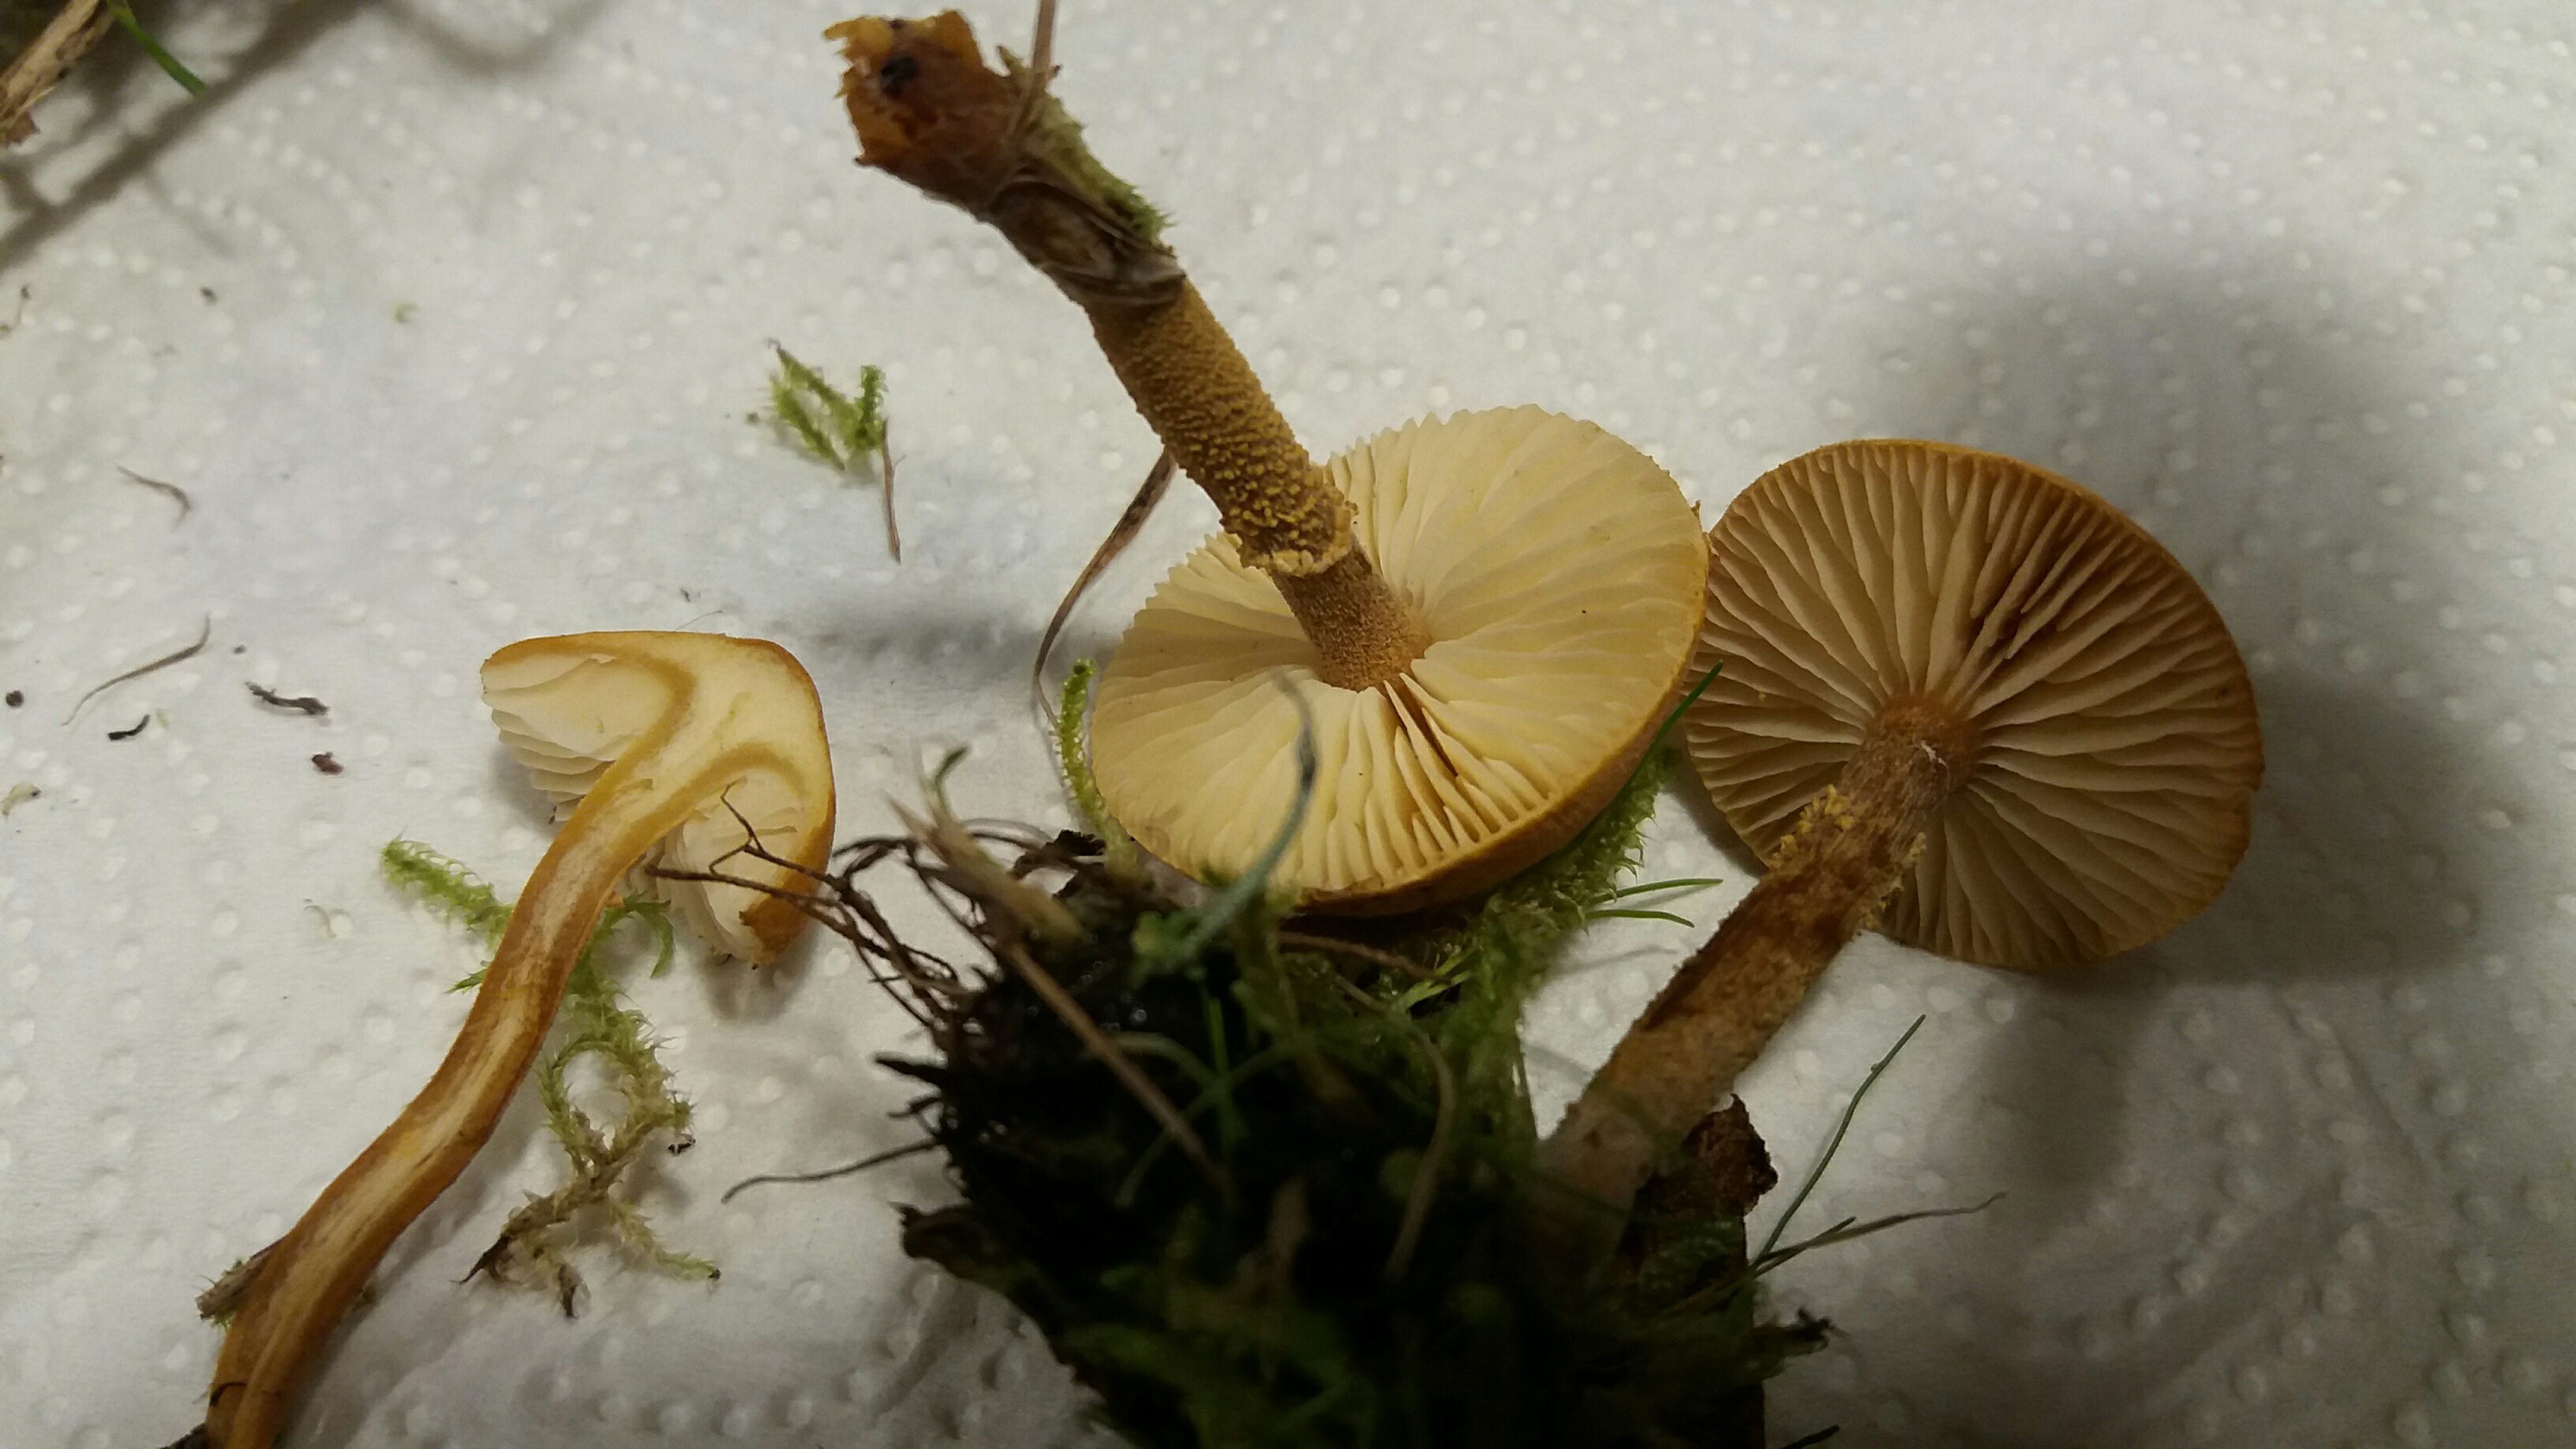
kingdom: Fungi
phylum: Basidiomycota
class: Agaricomycetes
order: Agaricales
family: Tricholomataceae
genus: Cystoderma
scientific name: Cystoderma amianthinum
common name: okkergul grynhat
